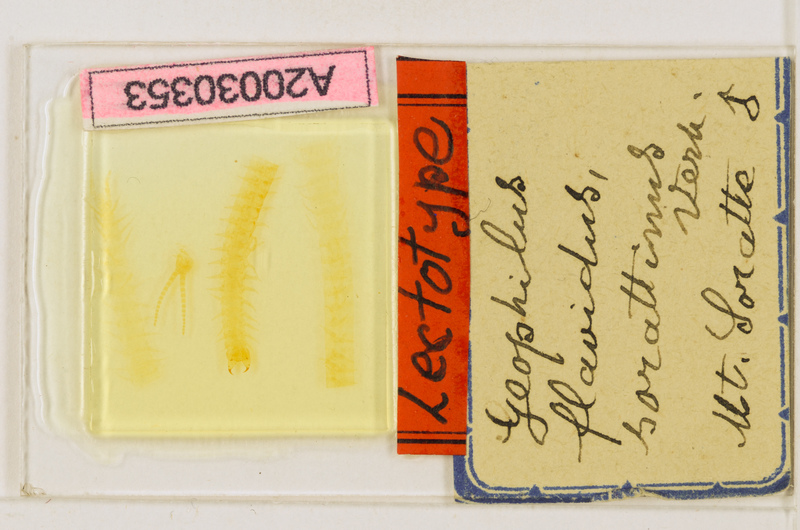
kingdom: Animalia
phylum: Arthropoda
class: Chilopoda
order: Geophilomorpha
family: Geophilidae
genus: Clinopodes
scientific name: Clinopodes flavidus
